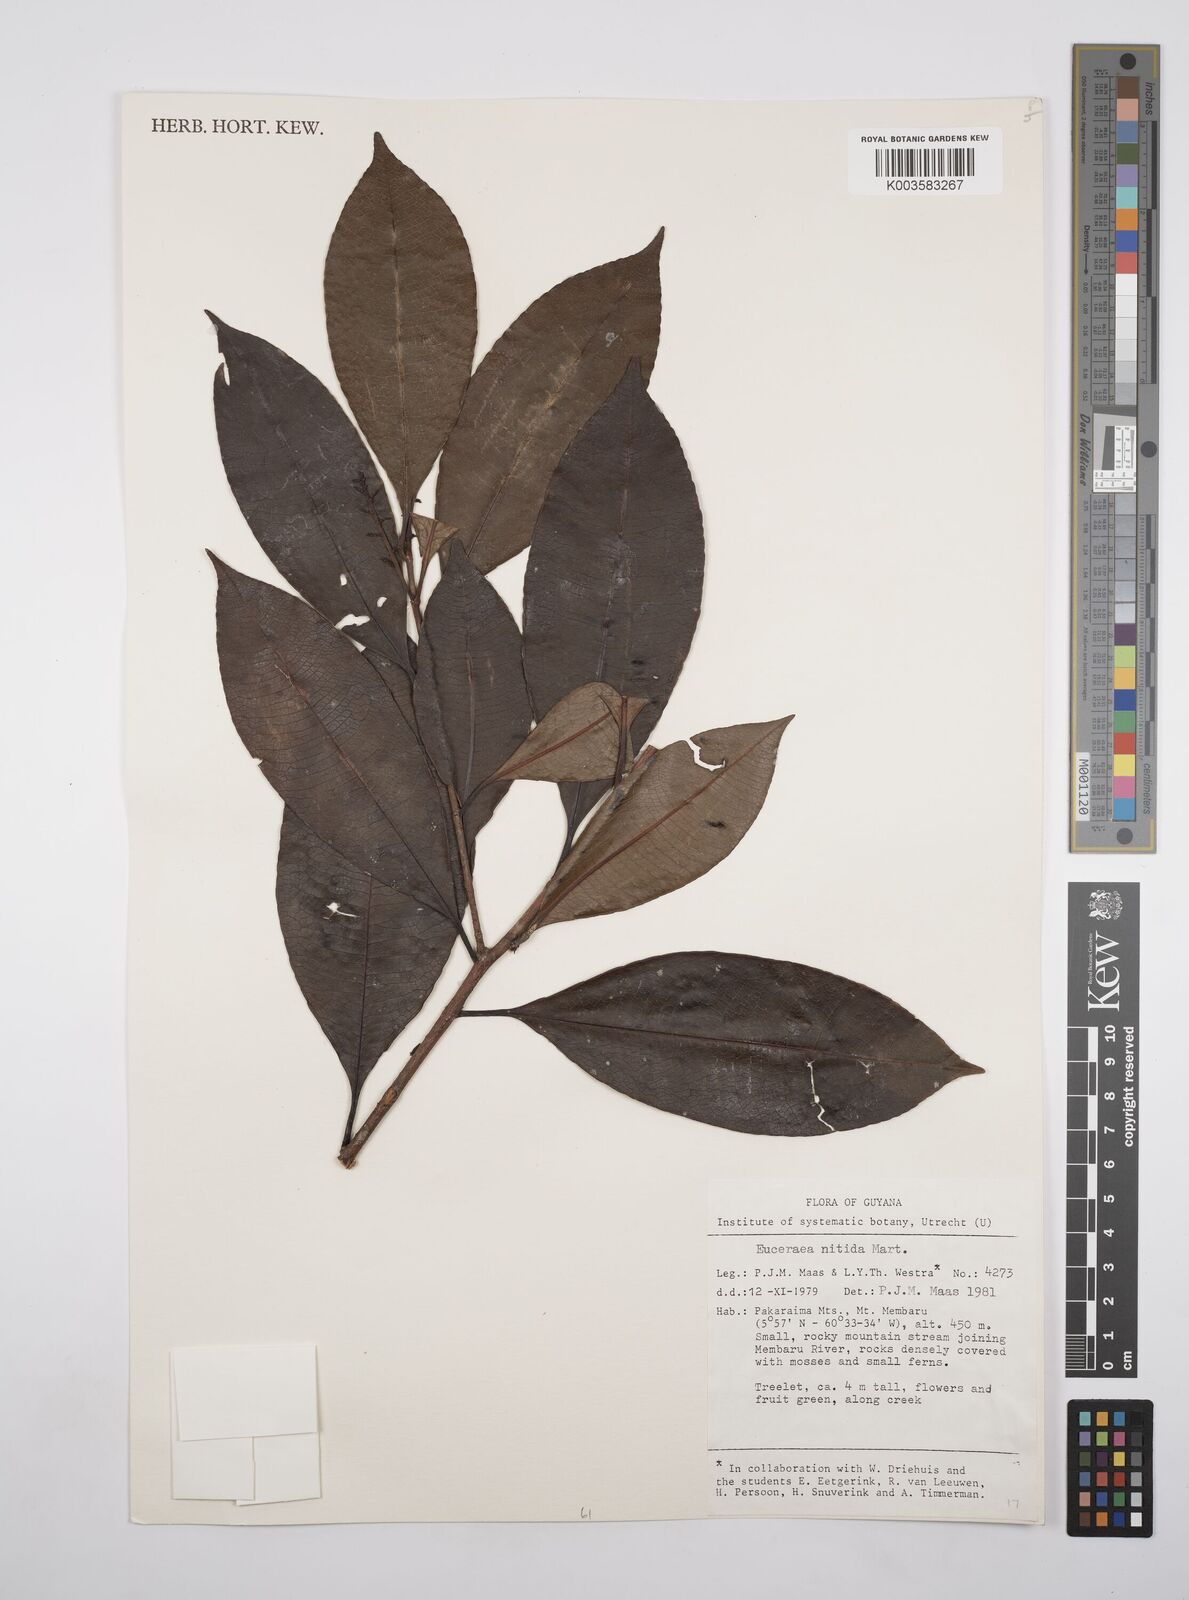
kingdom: Plantae
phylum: Tracheophyta
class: Magnoliopsida
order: Malpighiales
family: Salicaceae
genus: Casearia
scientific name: Casearia euceraea
